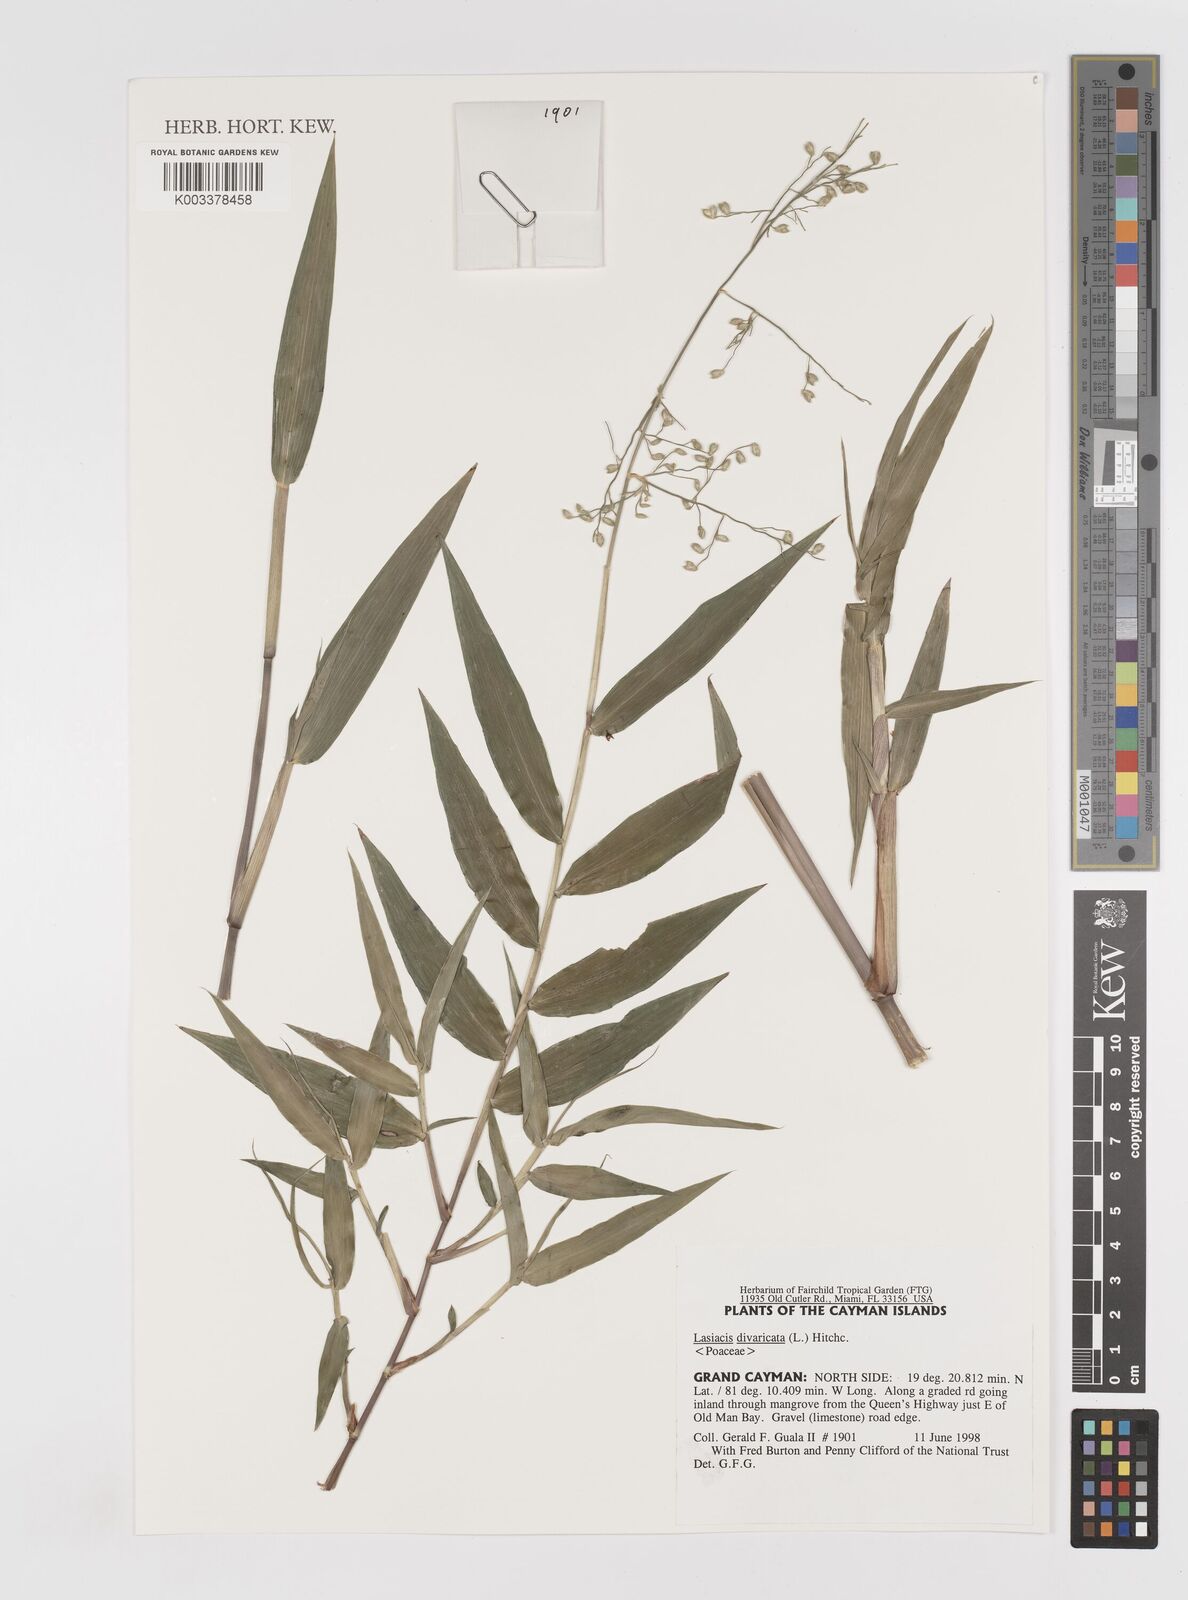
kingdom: Plantae
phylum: Tracheophyta
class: Liliopsida
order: Poales
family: Poaceae
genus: Lasiacis
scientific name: Lasiacis divaricata
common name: Smallcane
